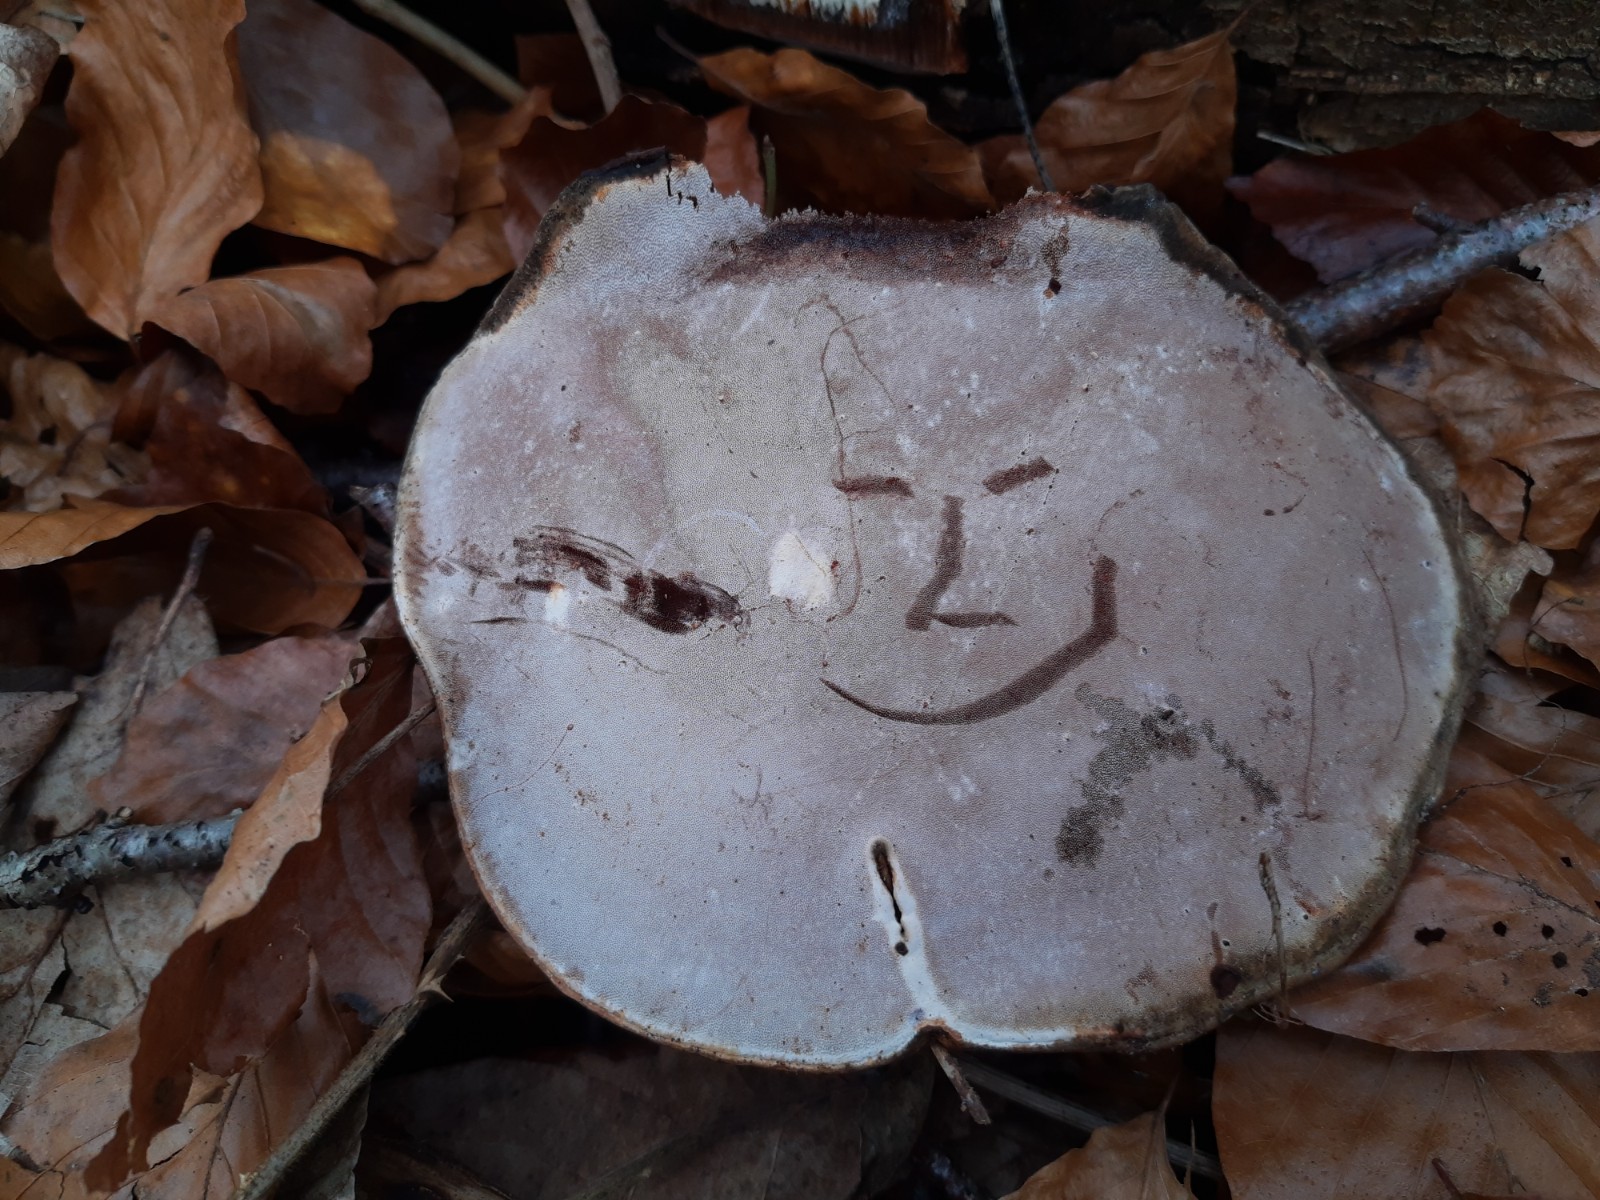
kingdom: Fungi
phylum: Basidiomycota
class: Agaricomycetes
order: Polyporales
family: Polyporaceae
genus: Ganoderma
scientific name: Ganoderma applanatum
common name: flad lakporesvamp
